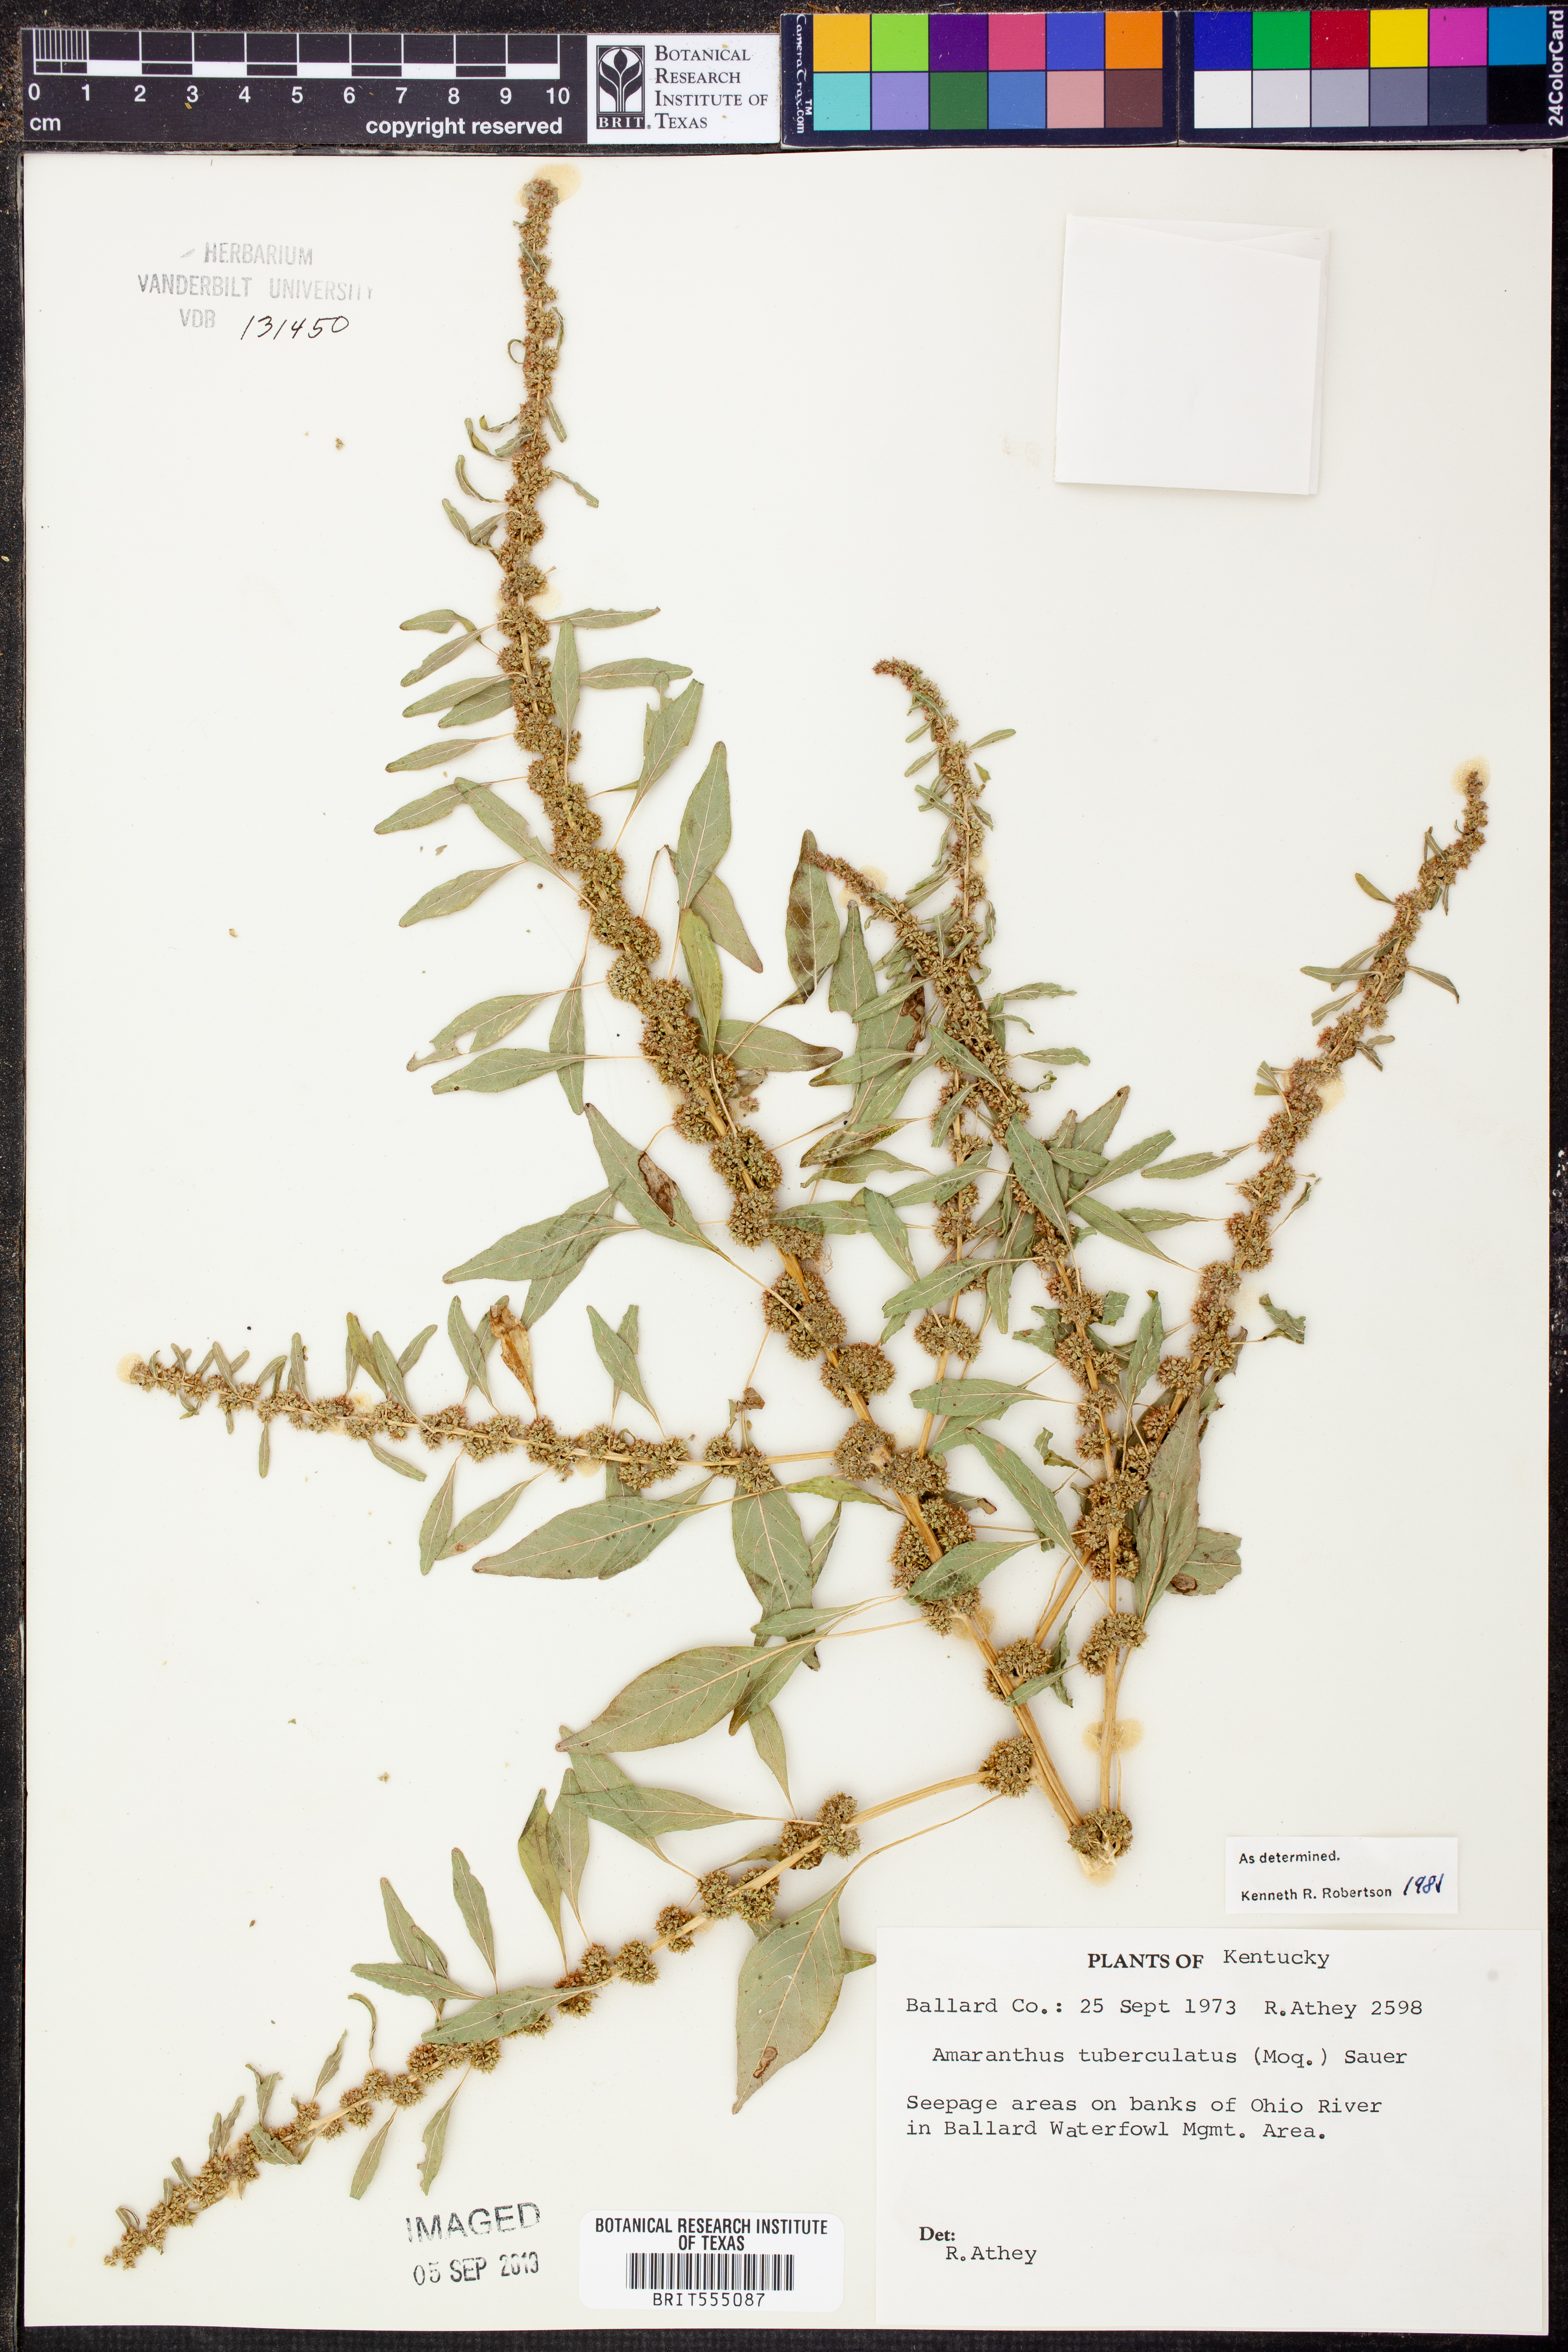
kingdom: Plantae
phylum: Tracheophyta
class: Magnoliopsida
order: Caryophyllales
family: Amaranthaceae
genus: Amaranthus
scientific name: Amaranthus tuberculatus
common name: Rough-fruit amaranth
